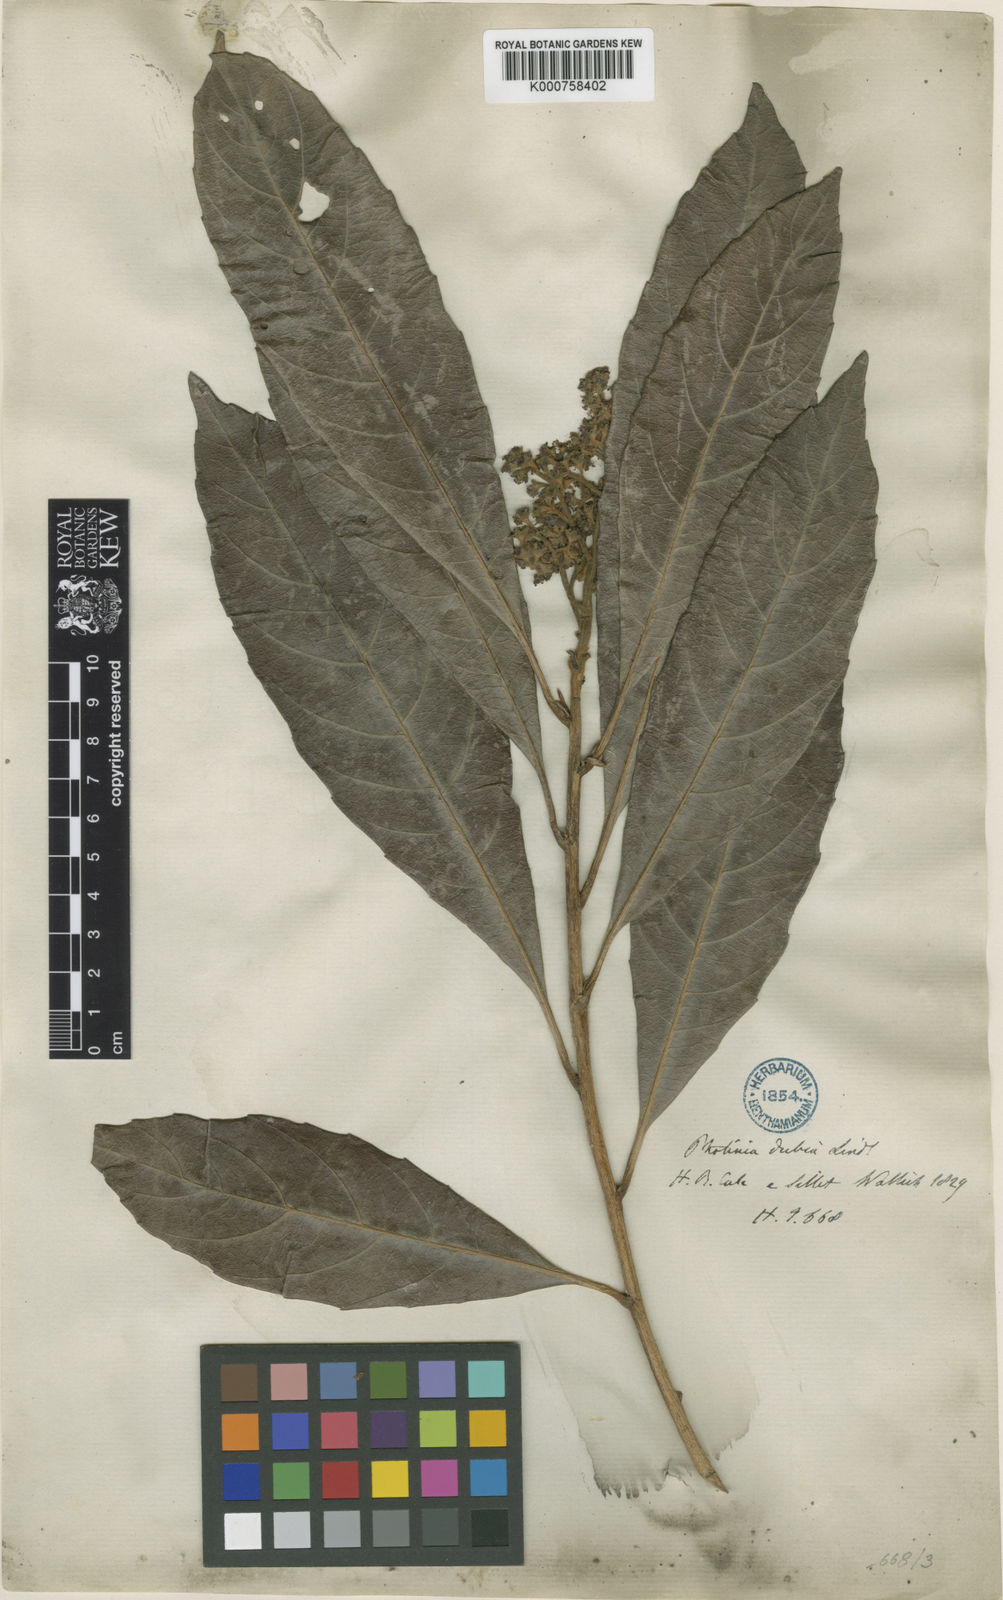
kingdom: Plantae
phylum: Tracheophyta
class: Magnoliopsida
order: Rosales
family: Rosaceae
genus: Rhaphiolepis
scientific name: Rhaphiolepis
